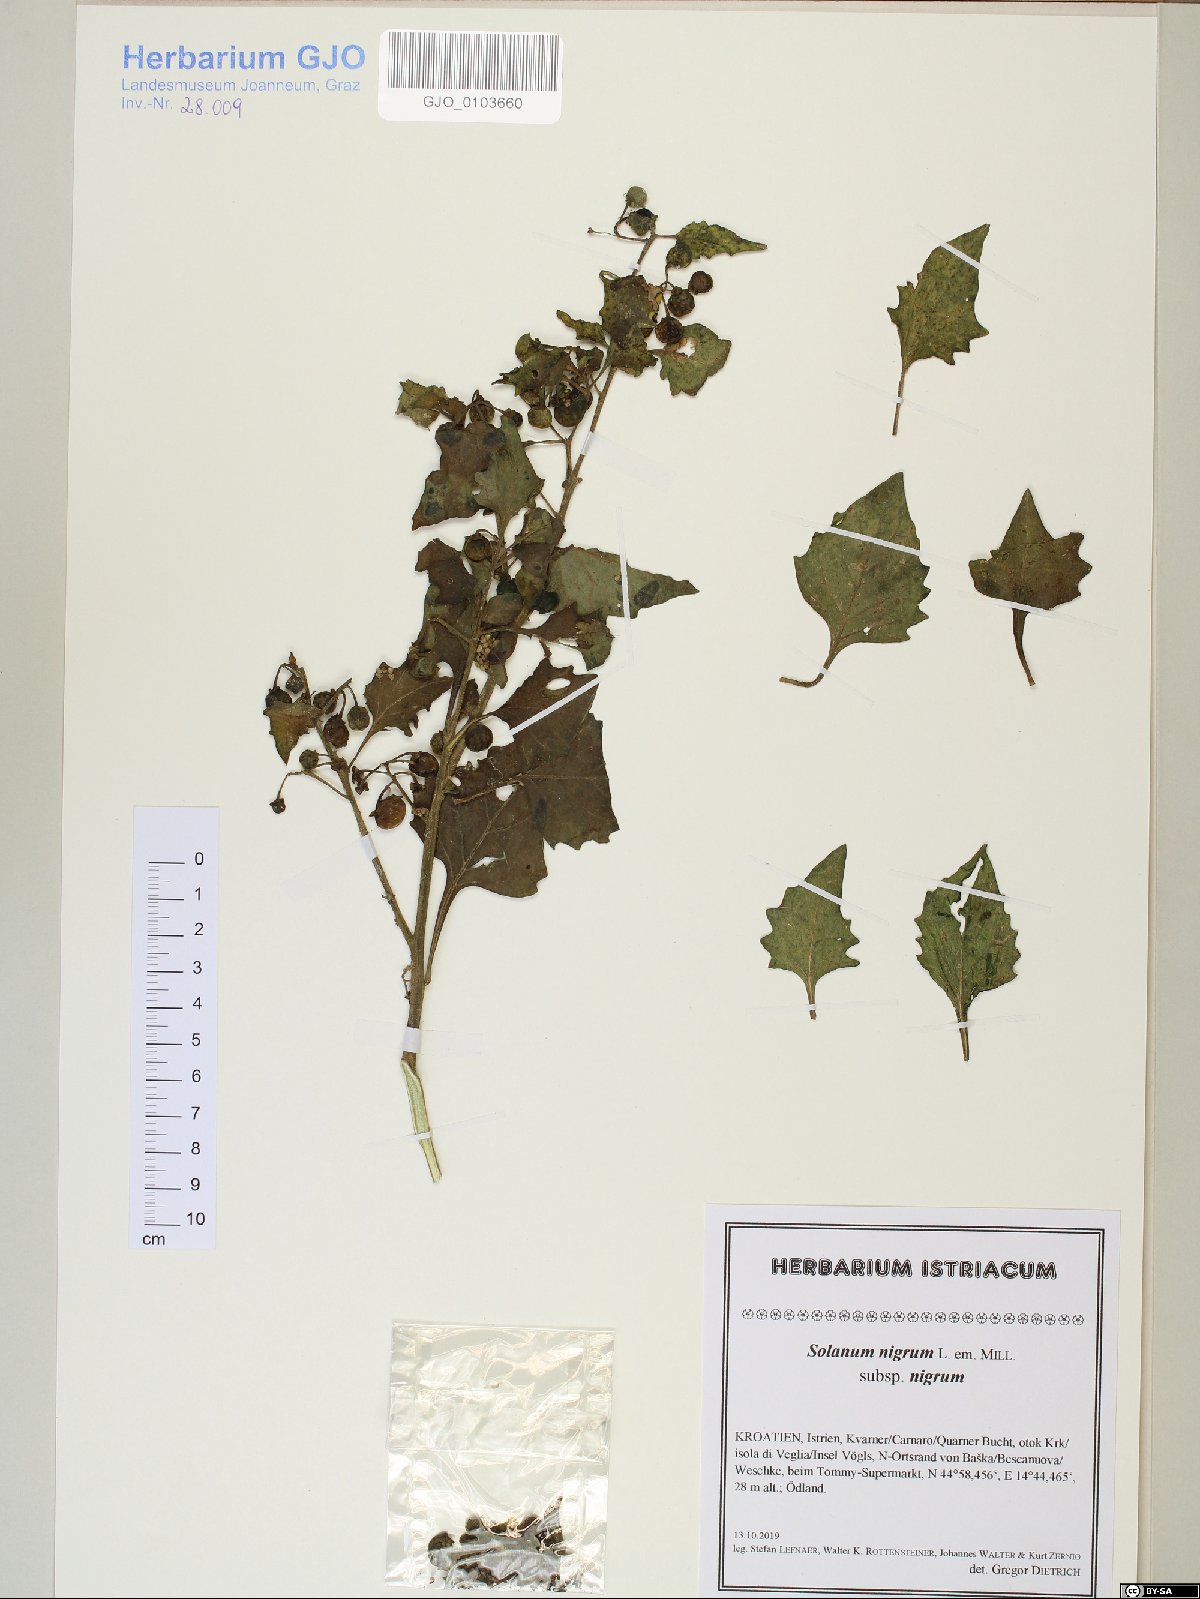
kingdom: Plantae
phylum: Tracheophyta
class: Magnoliopsida
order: Solanales
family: Solanaceae
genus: Solanum
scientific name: Solanum nigrum
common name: Black nightshade
